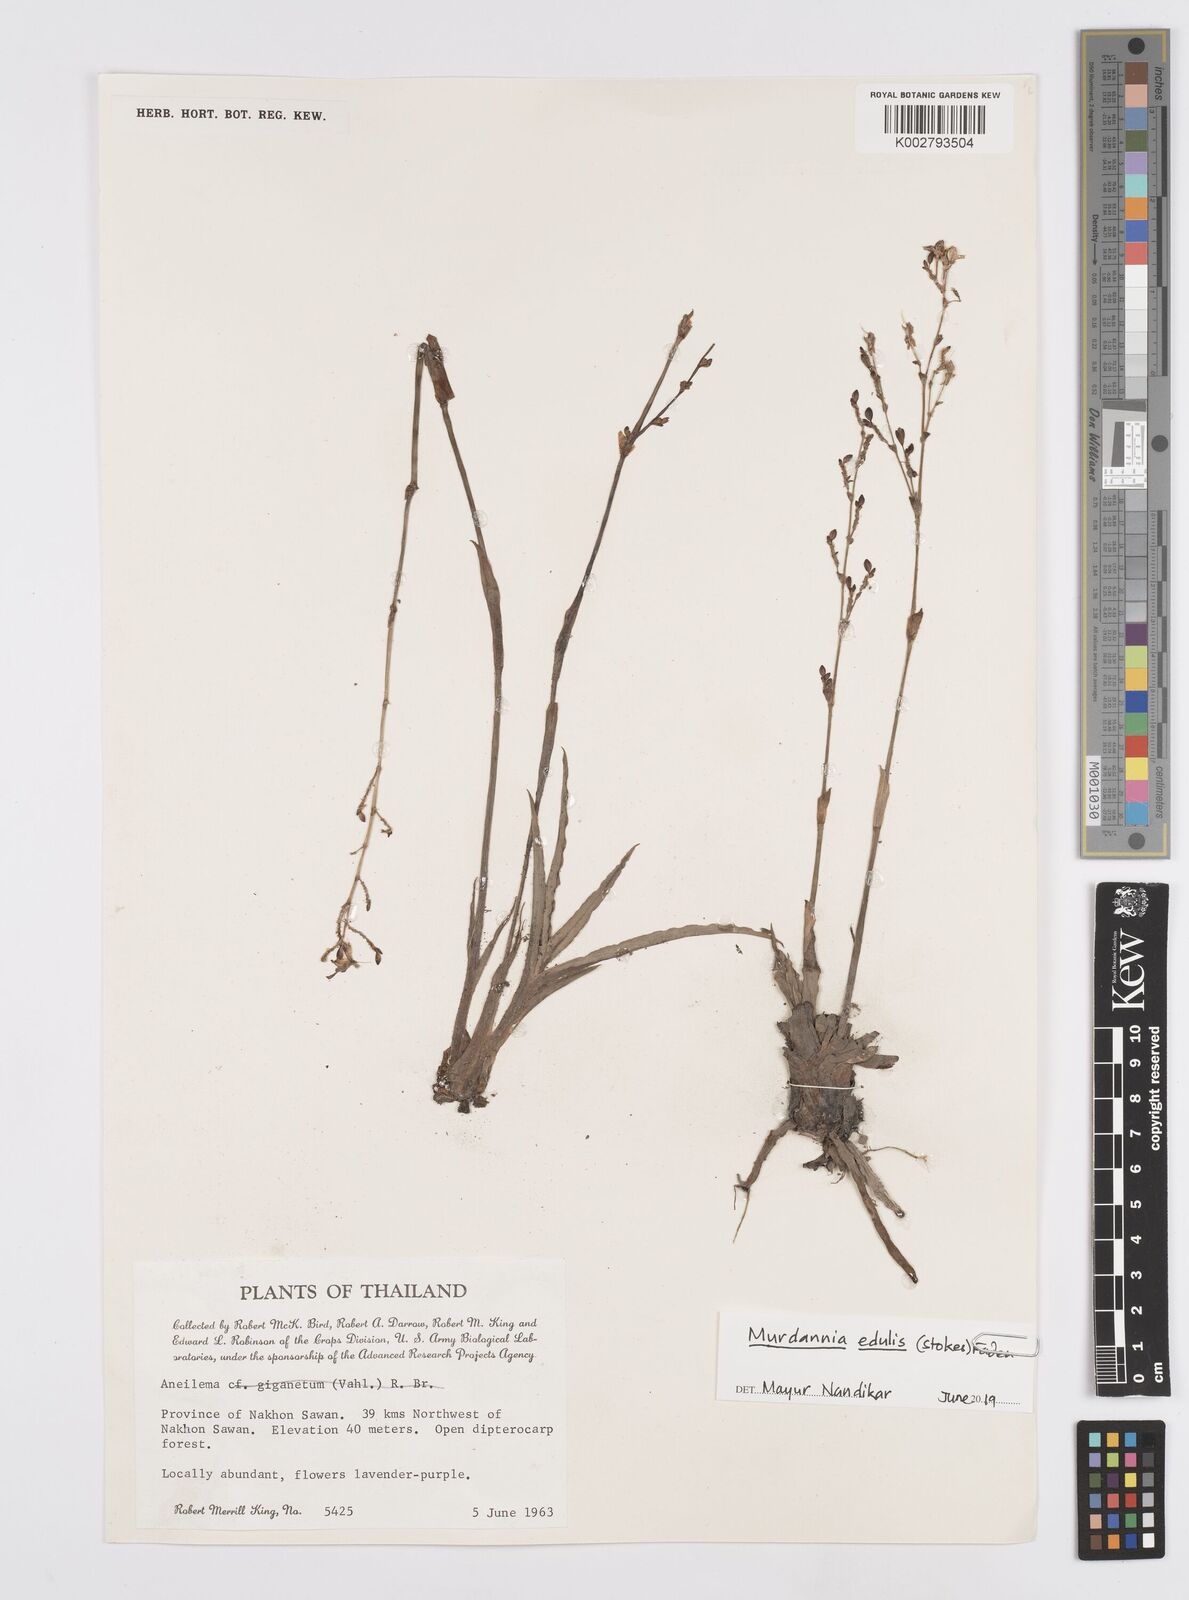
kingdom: Plantae
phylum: Tracheophyta
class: Liliopsida
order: Commelinales
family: Commelinaceae
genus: Murdannia
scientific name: Murdannia edulis
